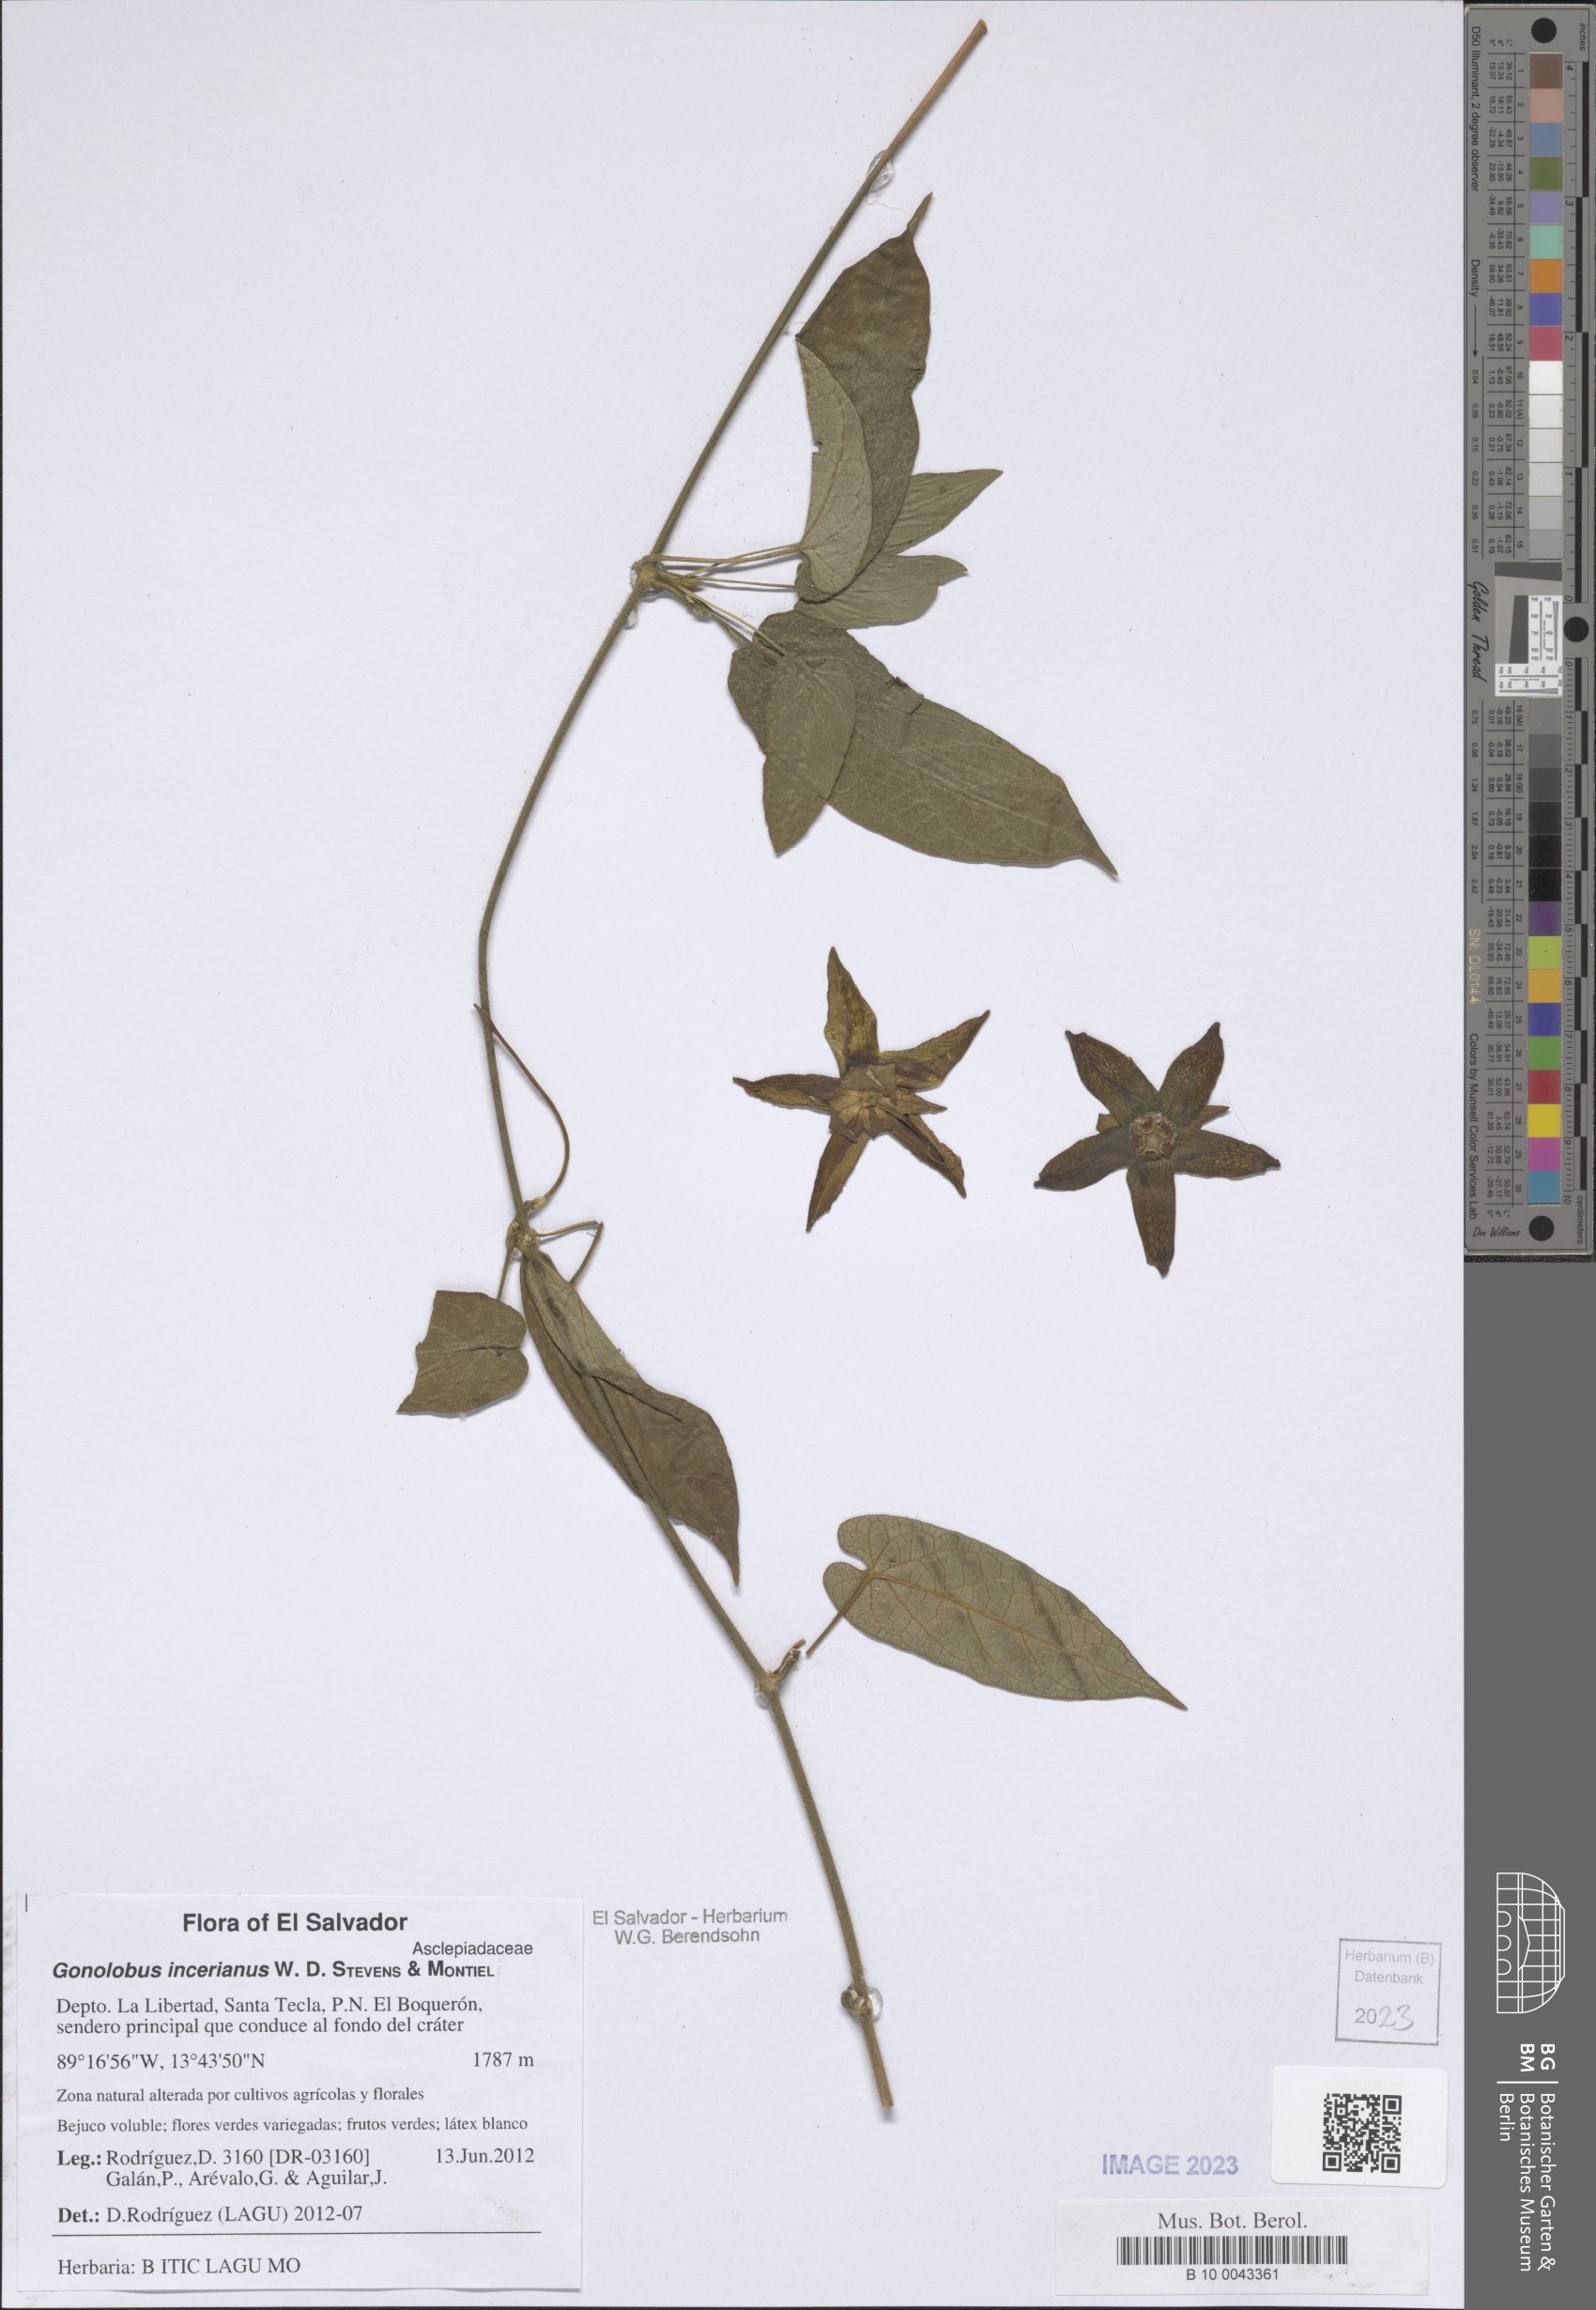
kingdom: Plantae
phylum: Tracheophyta
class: Magnoliopsida
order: Gentianales
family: Apocynaceae
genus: Gonolobus
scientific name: Gonolobus incerianus
